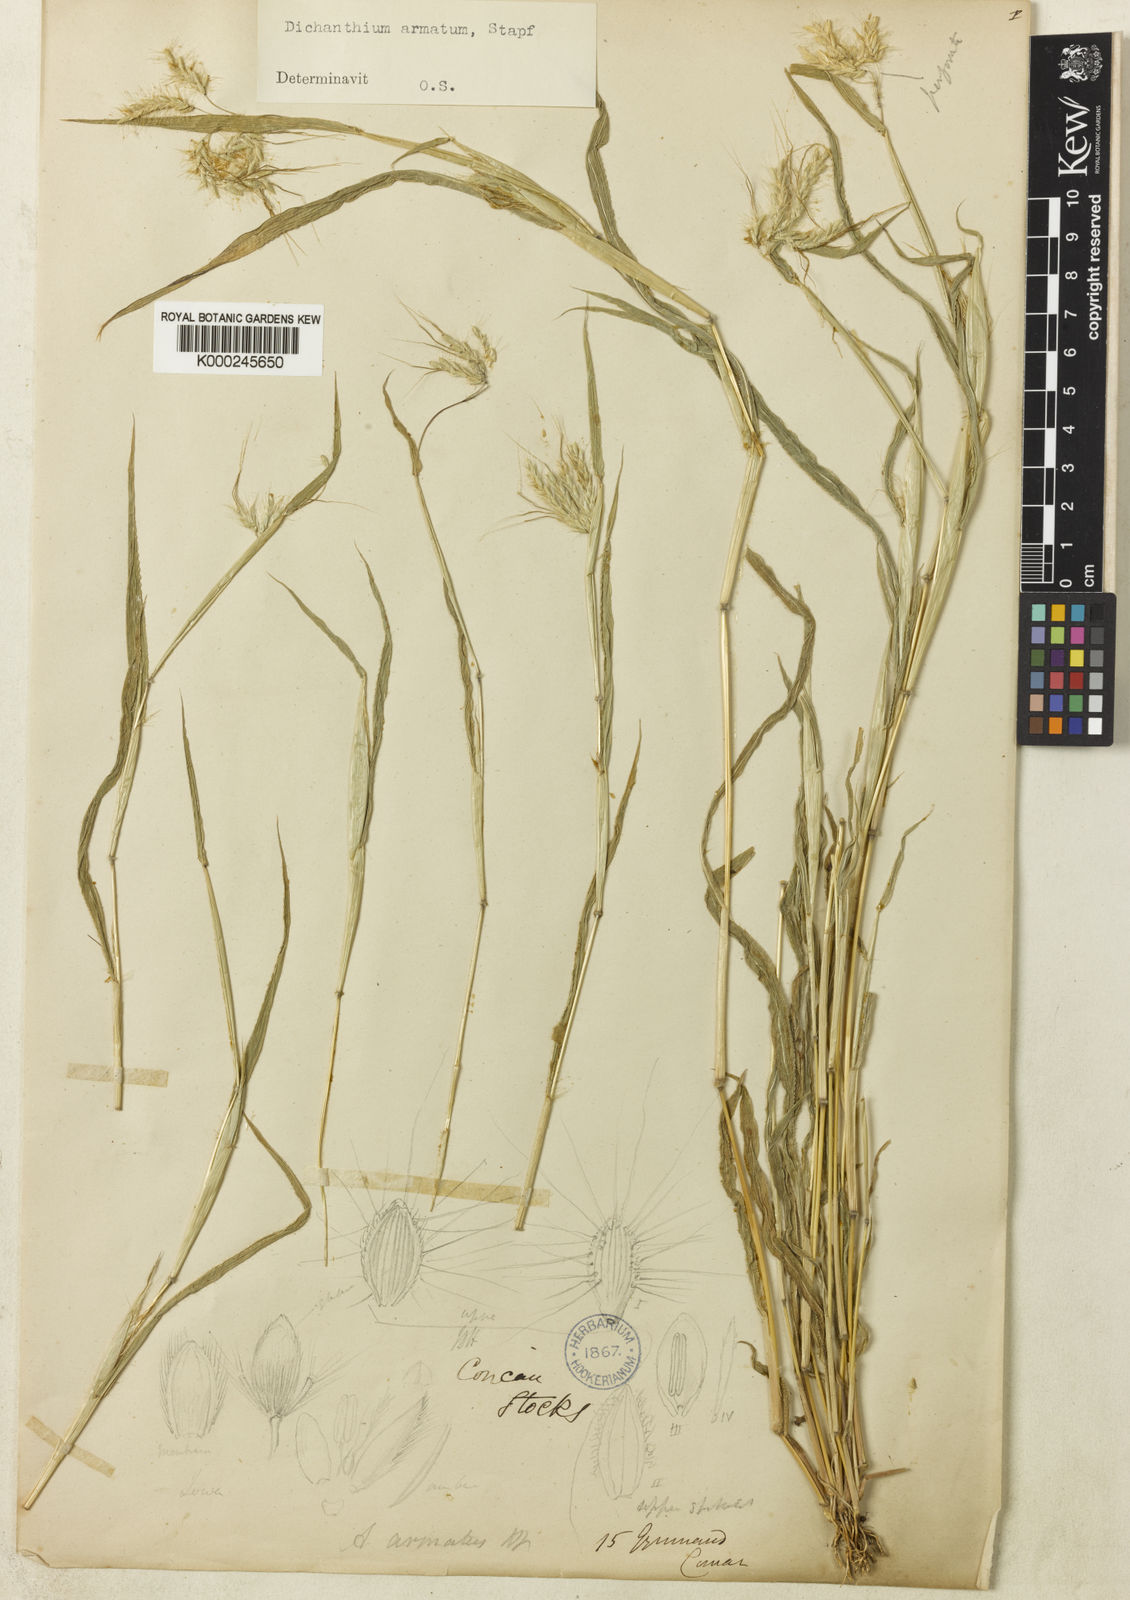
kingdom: Plantae
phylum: Tracheophyta
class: Liliopsida
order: Poales
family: Poaceae
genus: Dichanthium
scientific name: Dichanthium armatum
